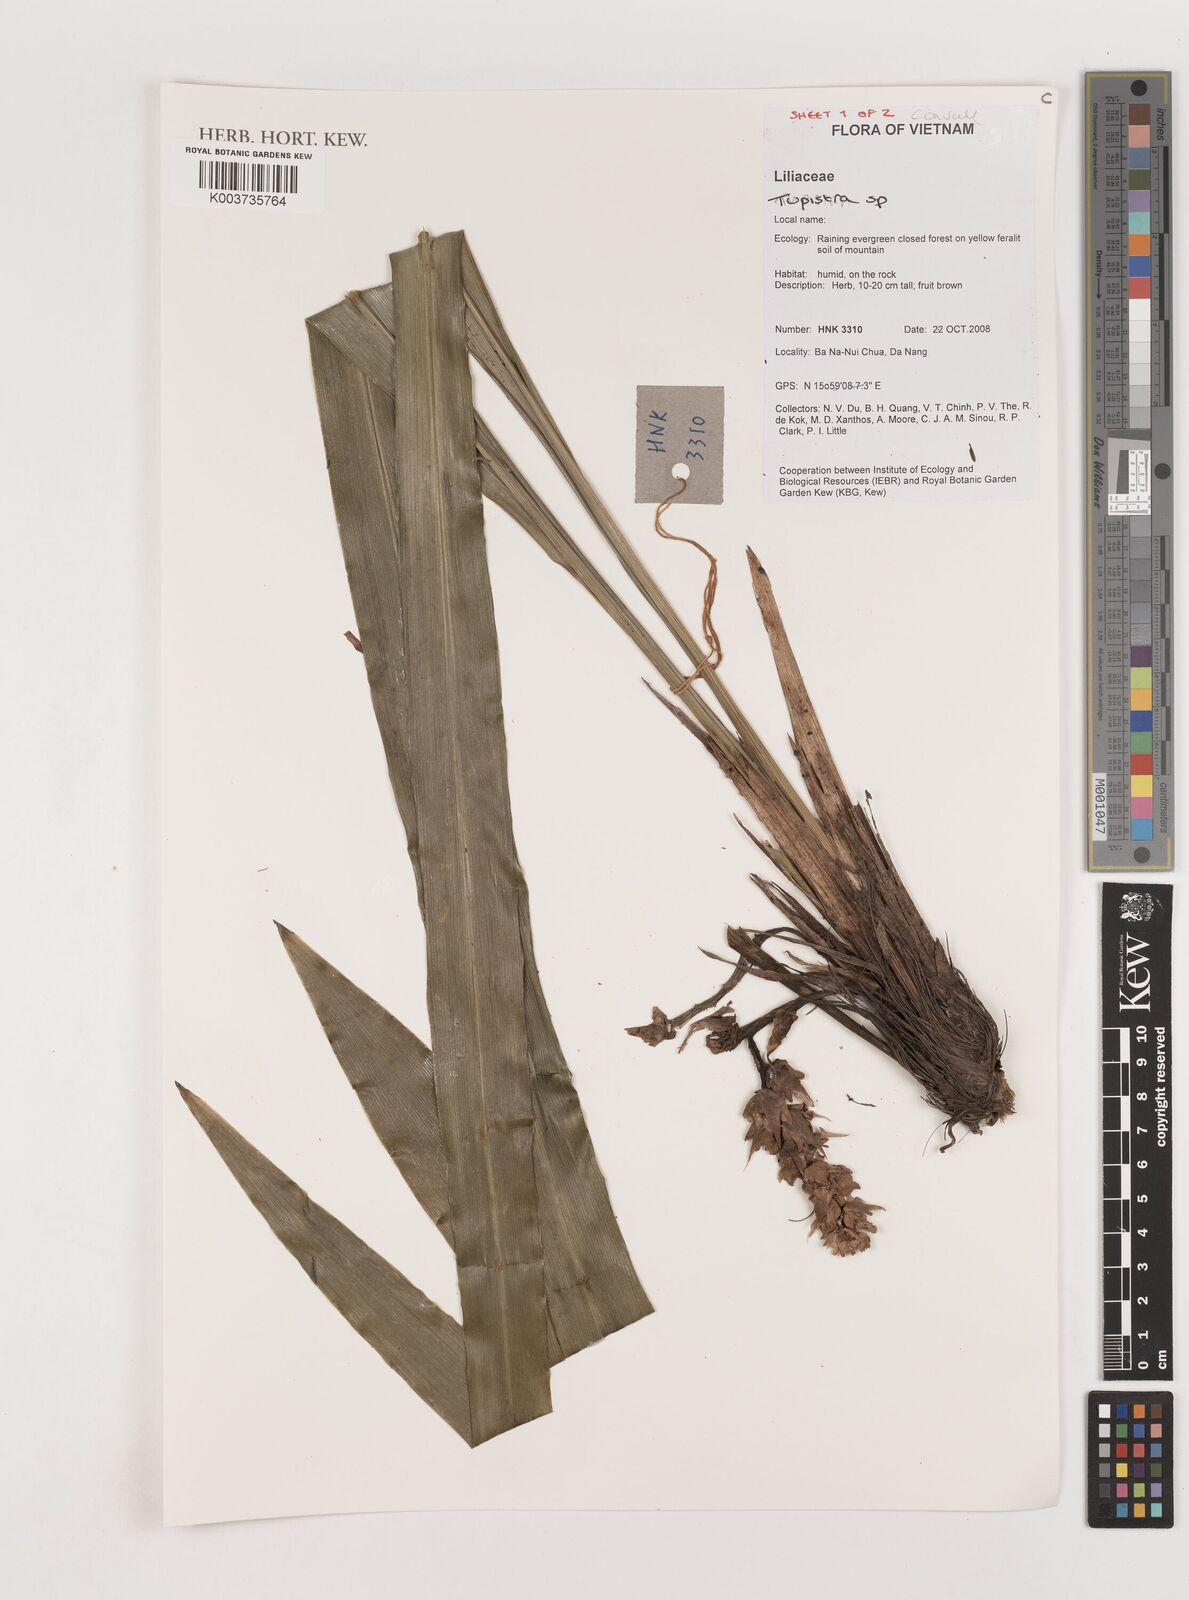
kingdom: Plantae
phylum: Tracheophyta
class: Liliopsida
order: Asparagales
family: Asparagaceae
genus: Tupistra
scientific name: Tupistra
